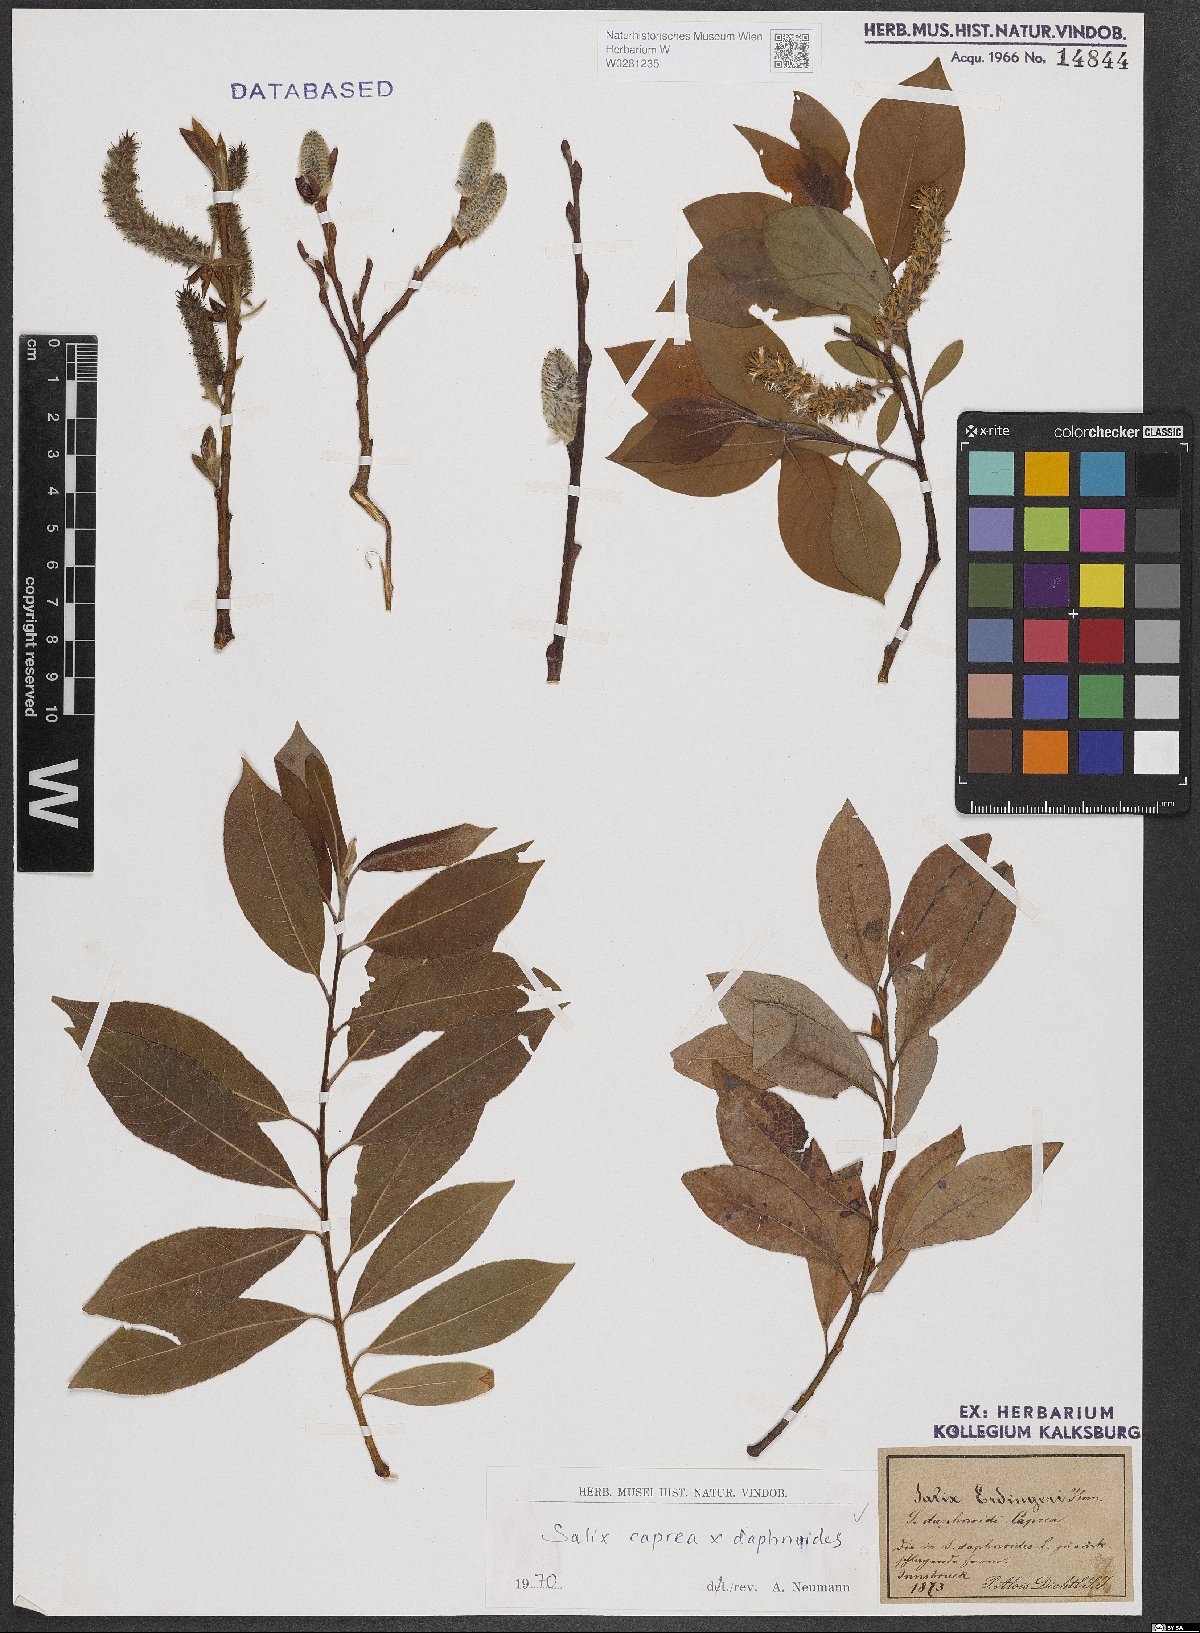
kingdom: Plantae
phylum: Tracheophyta
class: Magnoliopsida
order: Malpighiales
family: Salicaceae
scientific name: Salicaceae
